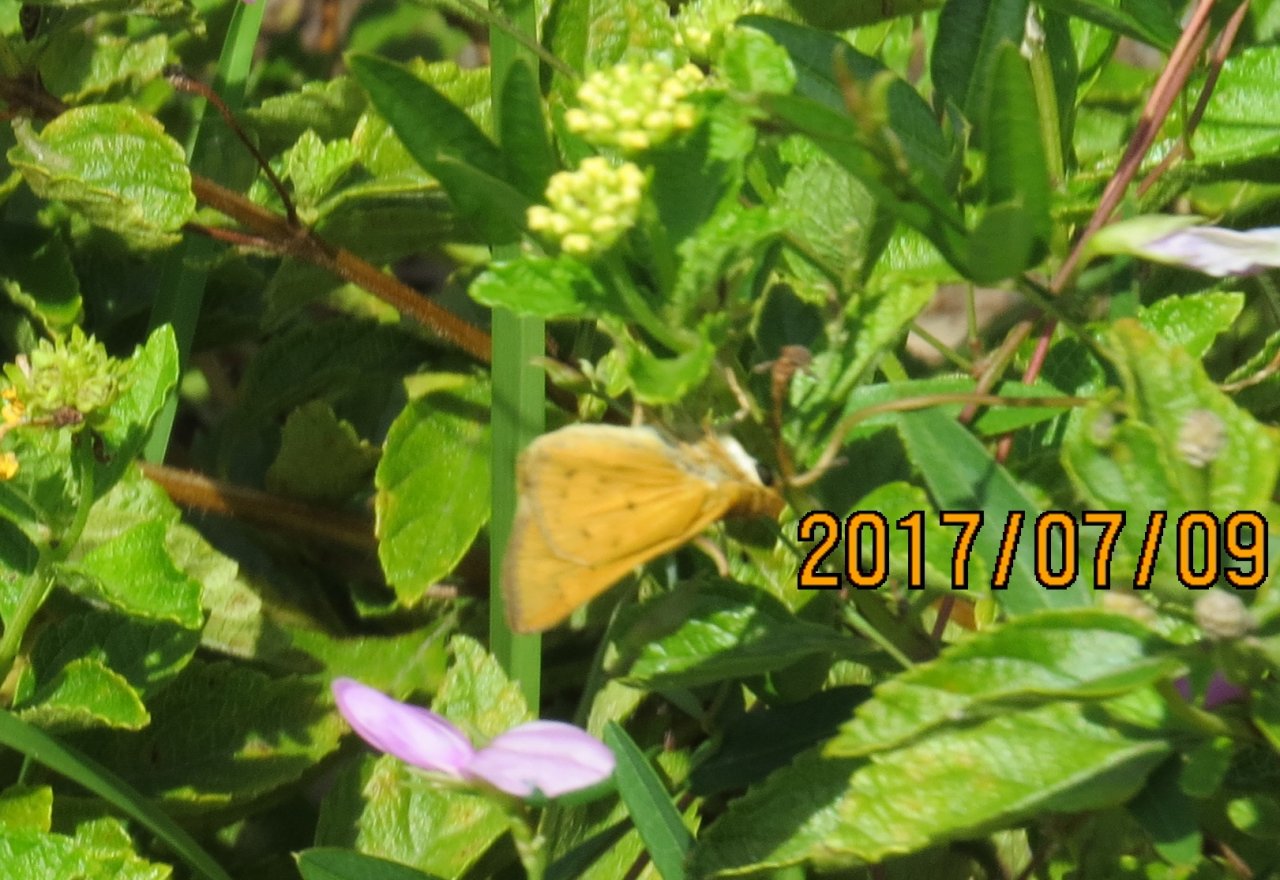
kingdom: Animalia
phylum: Arthropoda
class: Insecta
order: Lepidoptera
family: Hesperiidae
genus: Hylephila
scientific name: Hylephila phyleus
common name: Fiery Skipper
